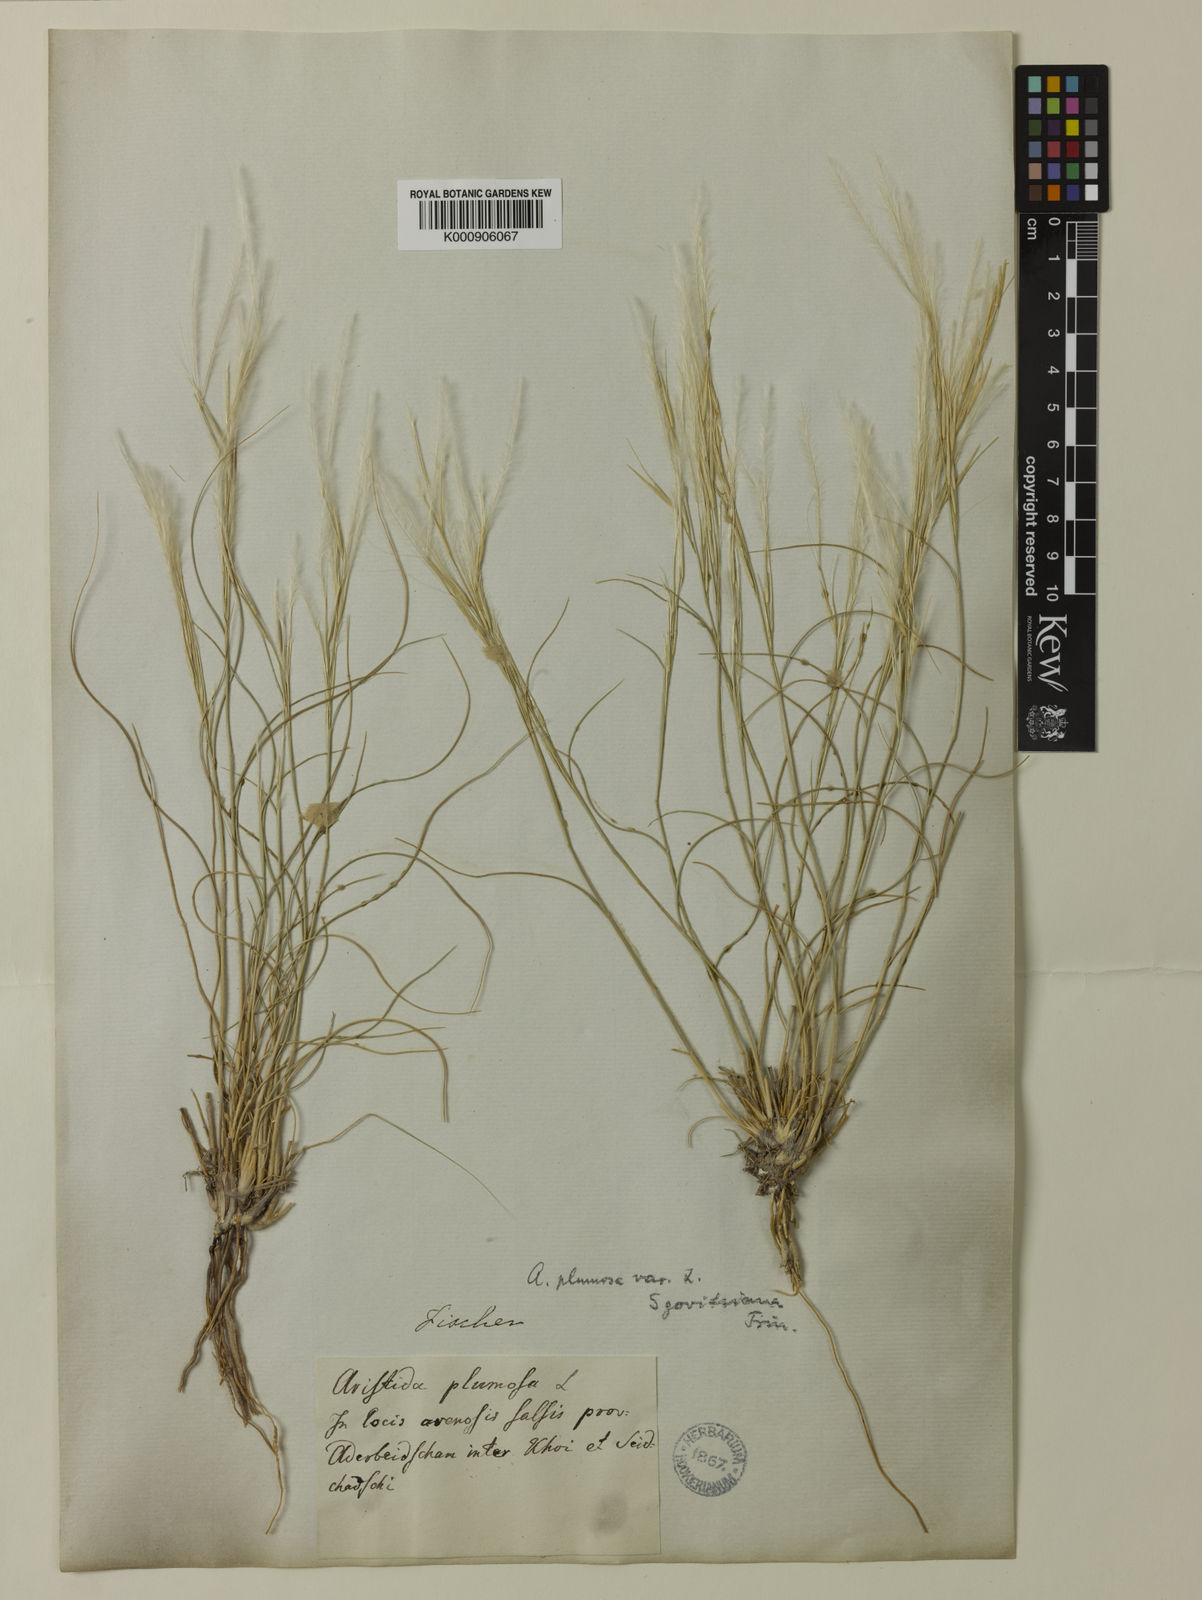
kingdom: Plantae
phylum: Tracheophyta
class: Liliopsida
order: Poales
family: Poaceae
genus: Stipagrostis
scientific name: Stipagrostis plumosa
